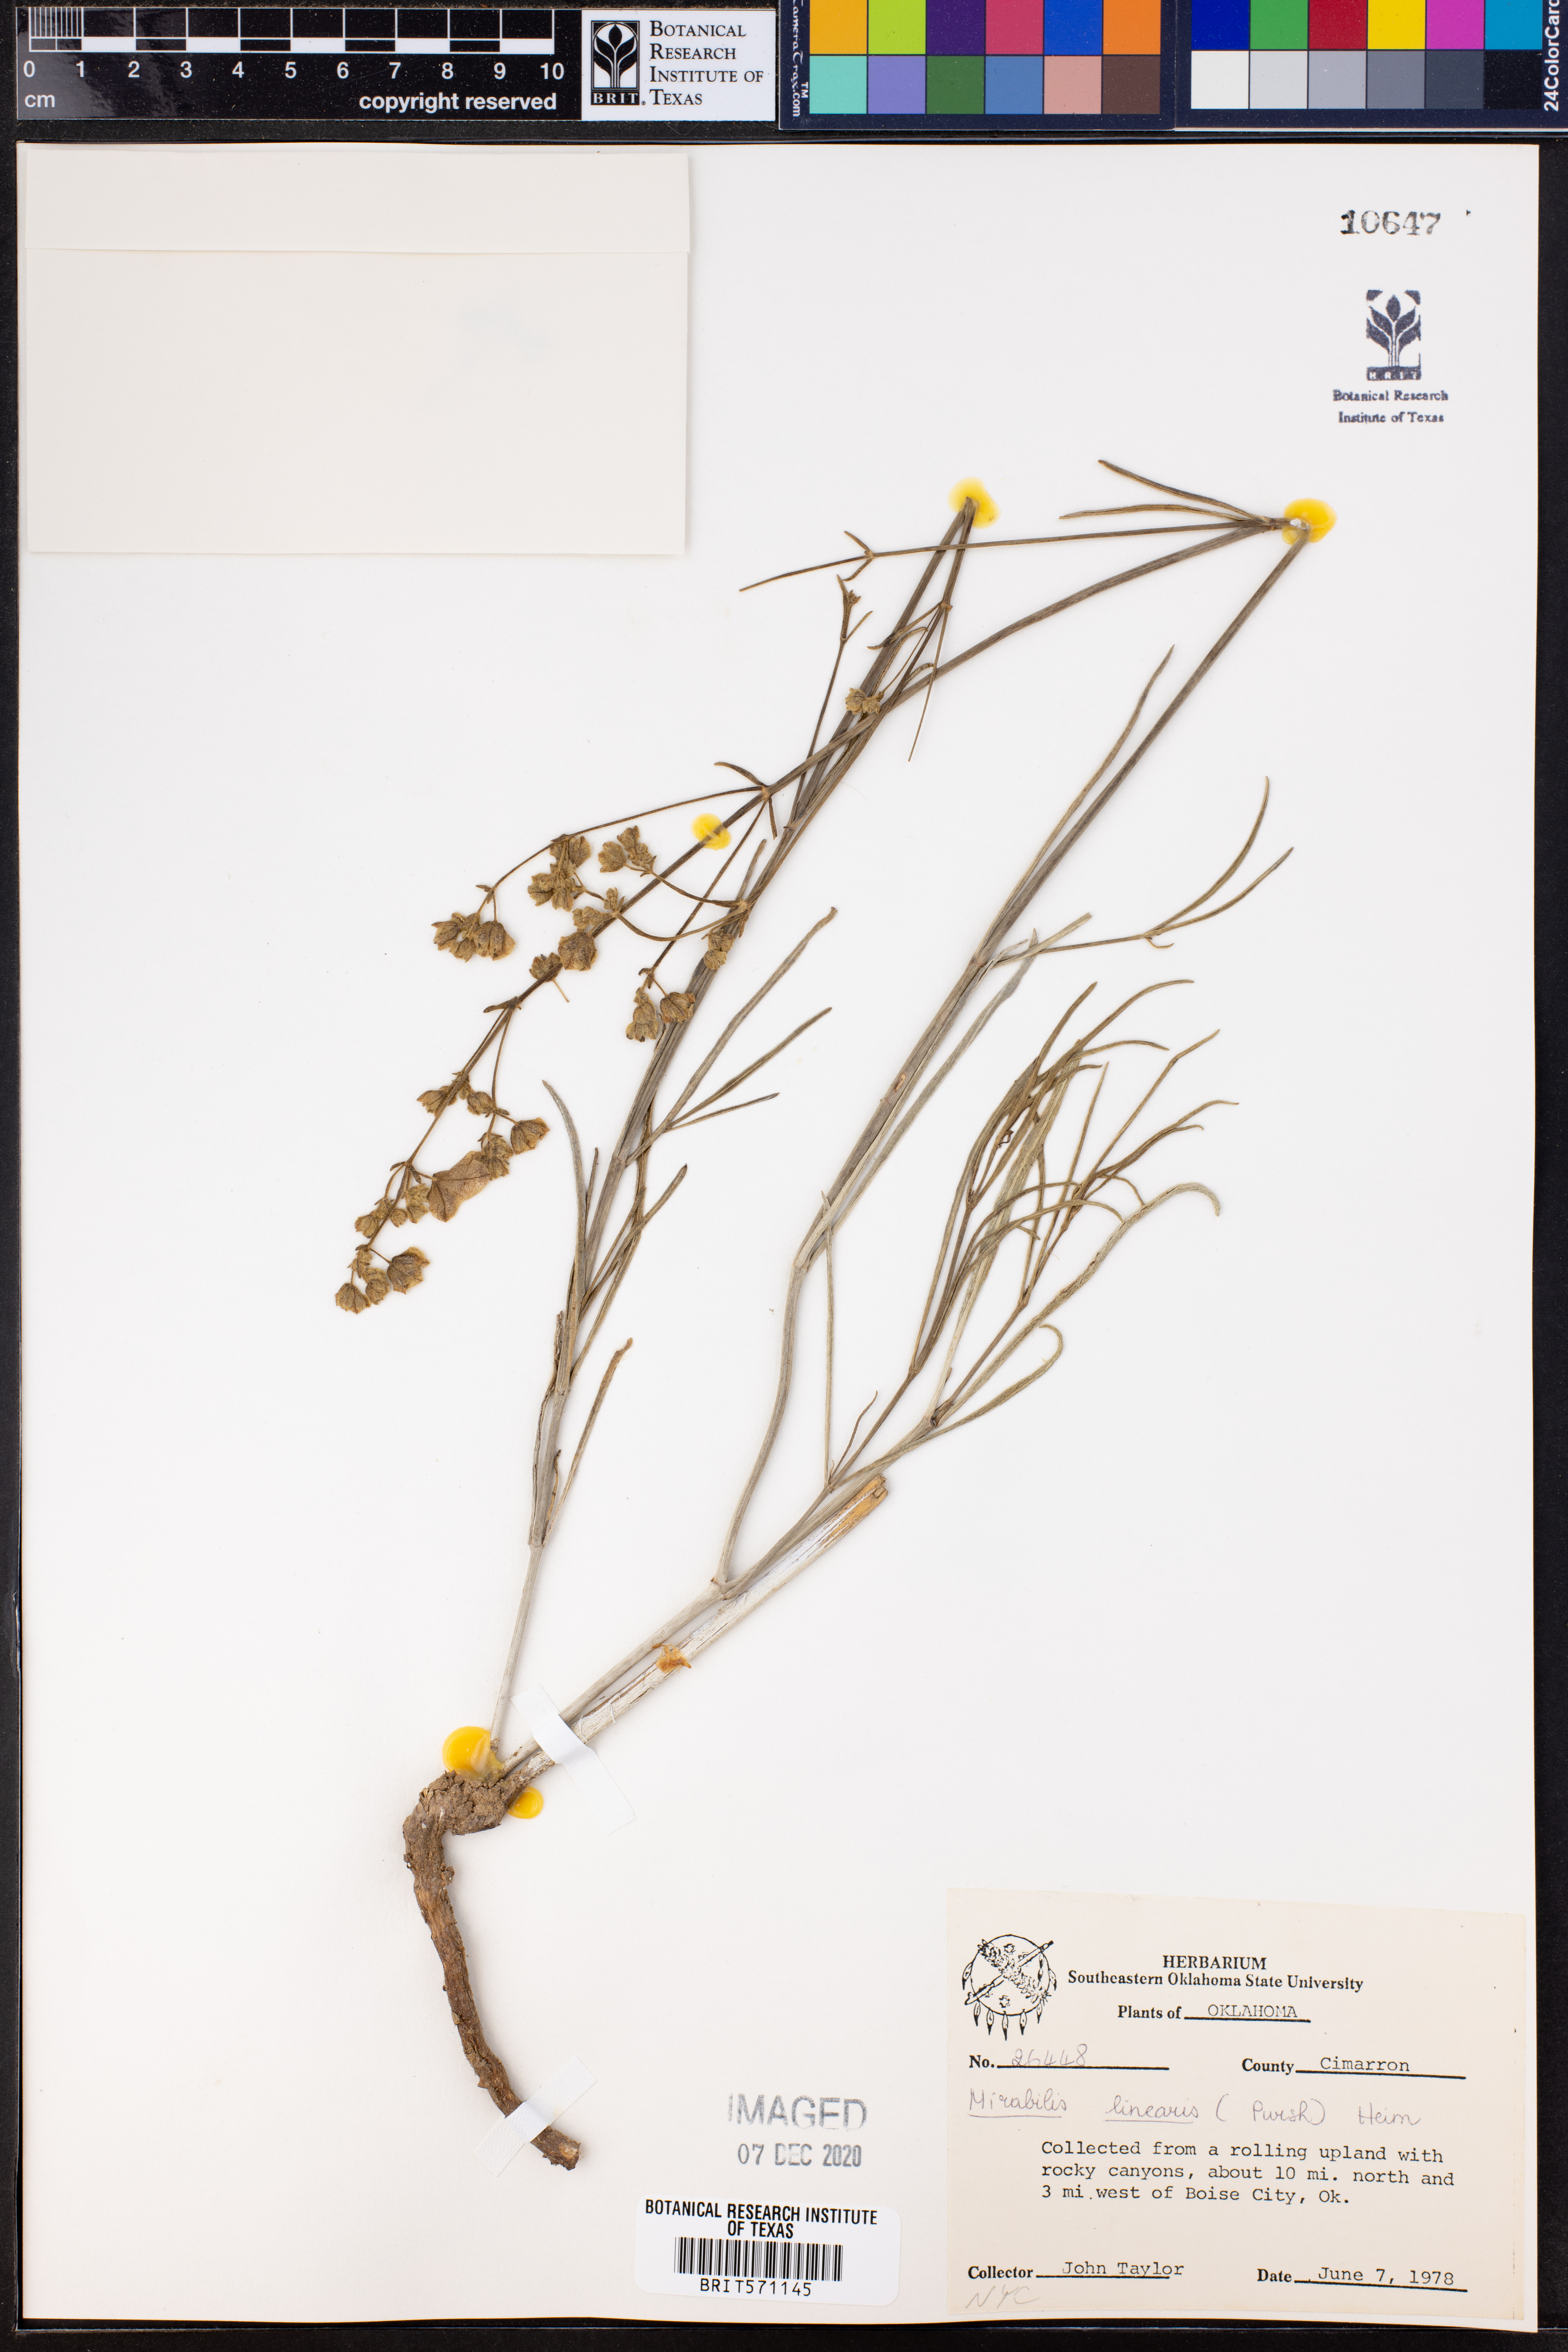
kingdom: Plantae
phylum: Tracheophyta
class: Magnoliopsida
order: Caryophyllales
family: Nyctaginaceae
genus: Mirabilis
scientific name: Mirabilis linearis
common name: Linear-leaved four-o'clock
